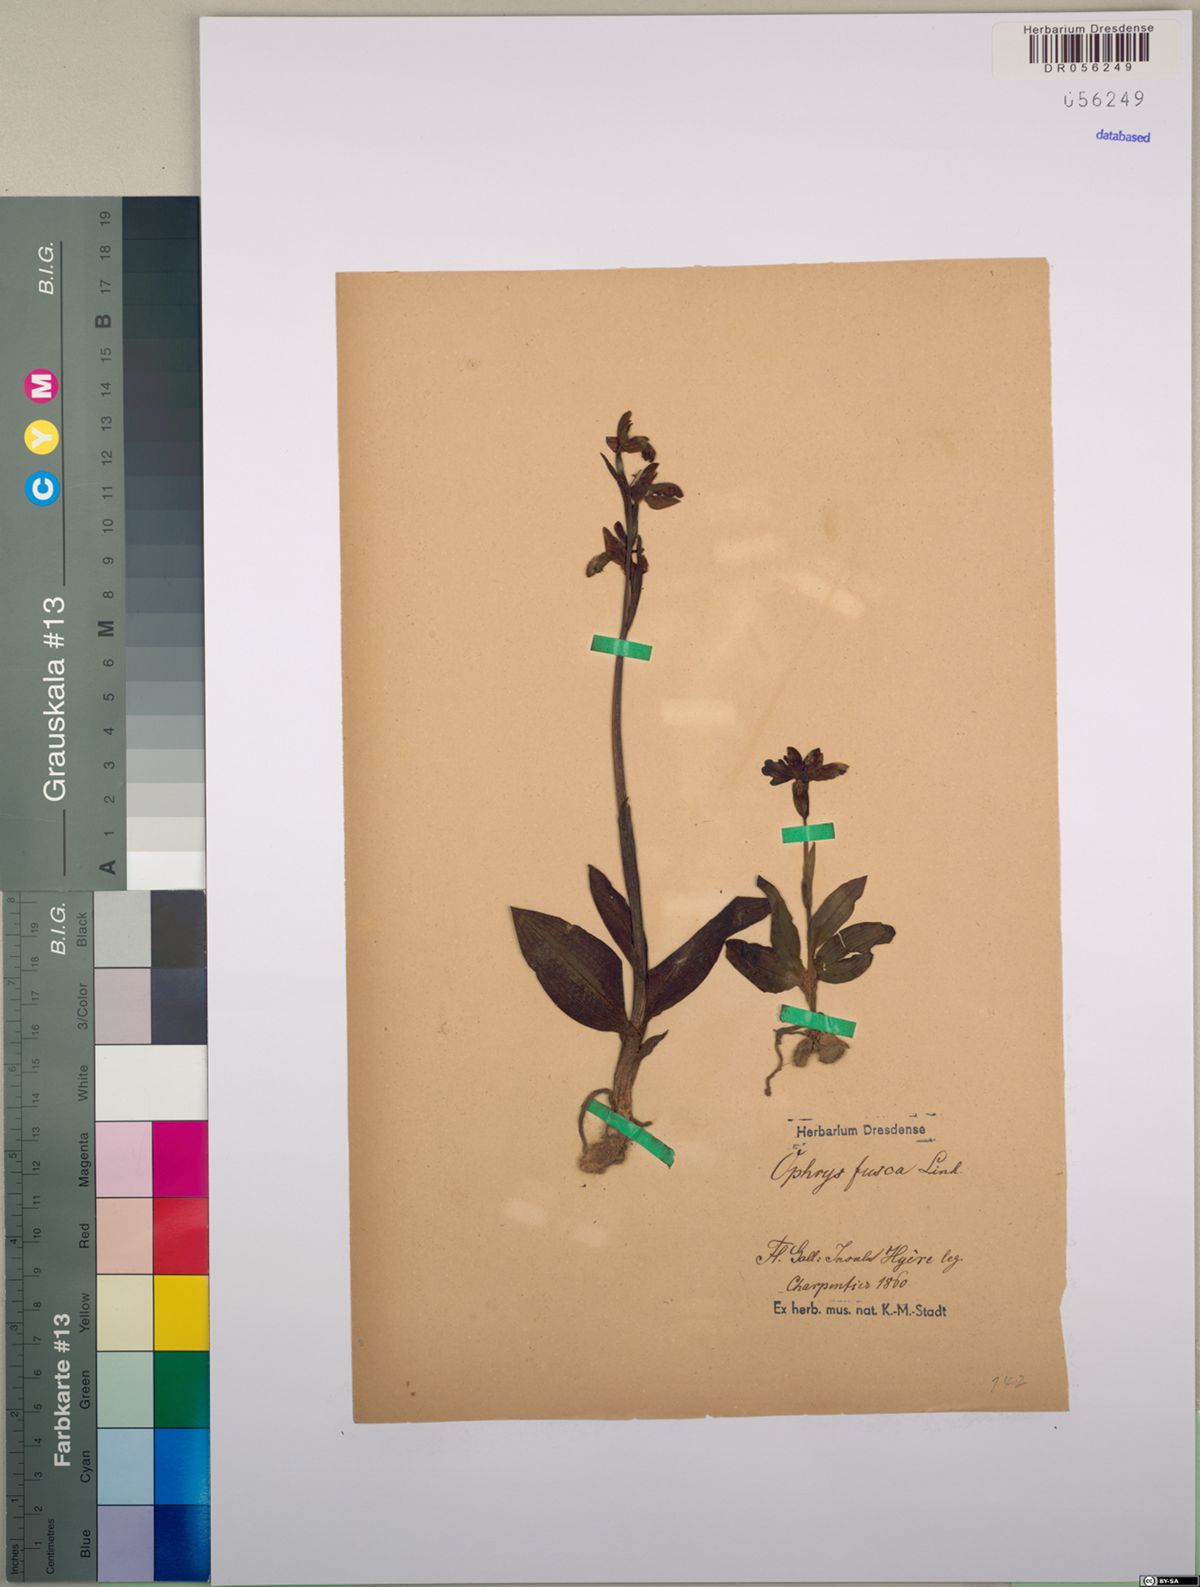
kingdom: Plantae
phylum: Tracheophyta
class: Liliopsida
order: Asparagales
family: Orchidaceae
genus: Ophrys
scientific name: Ophrys fusca
